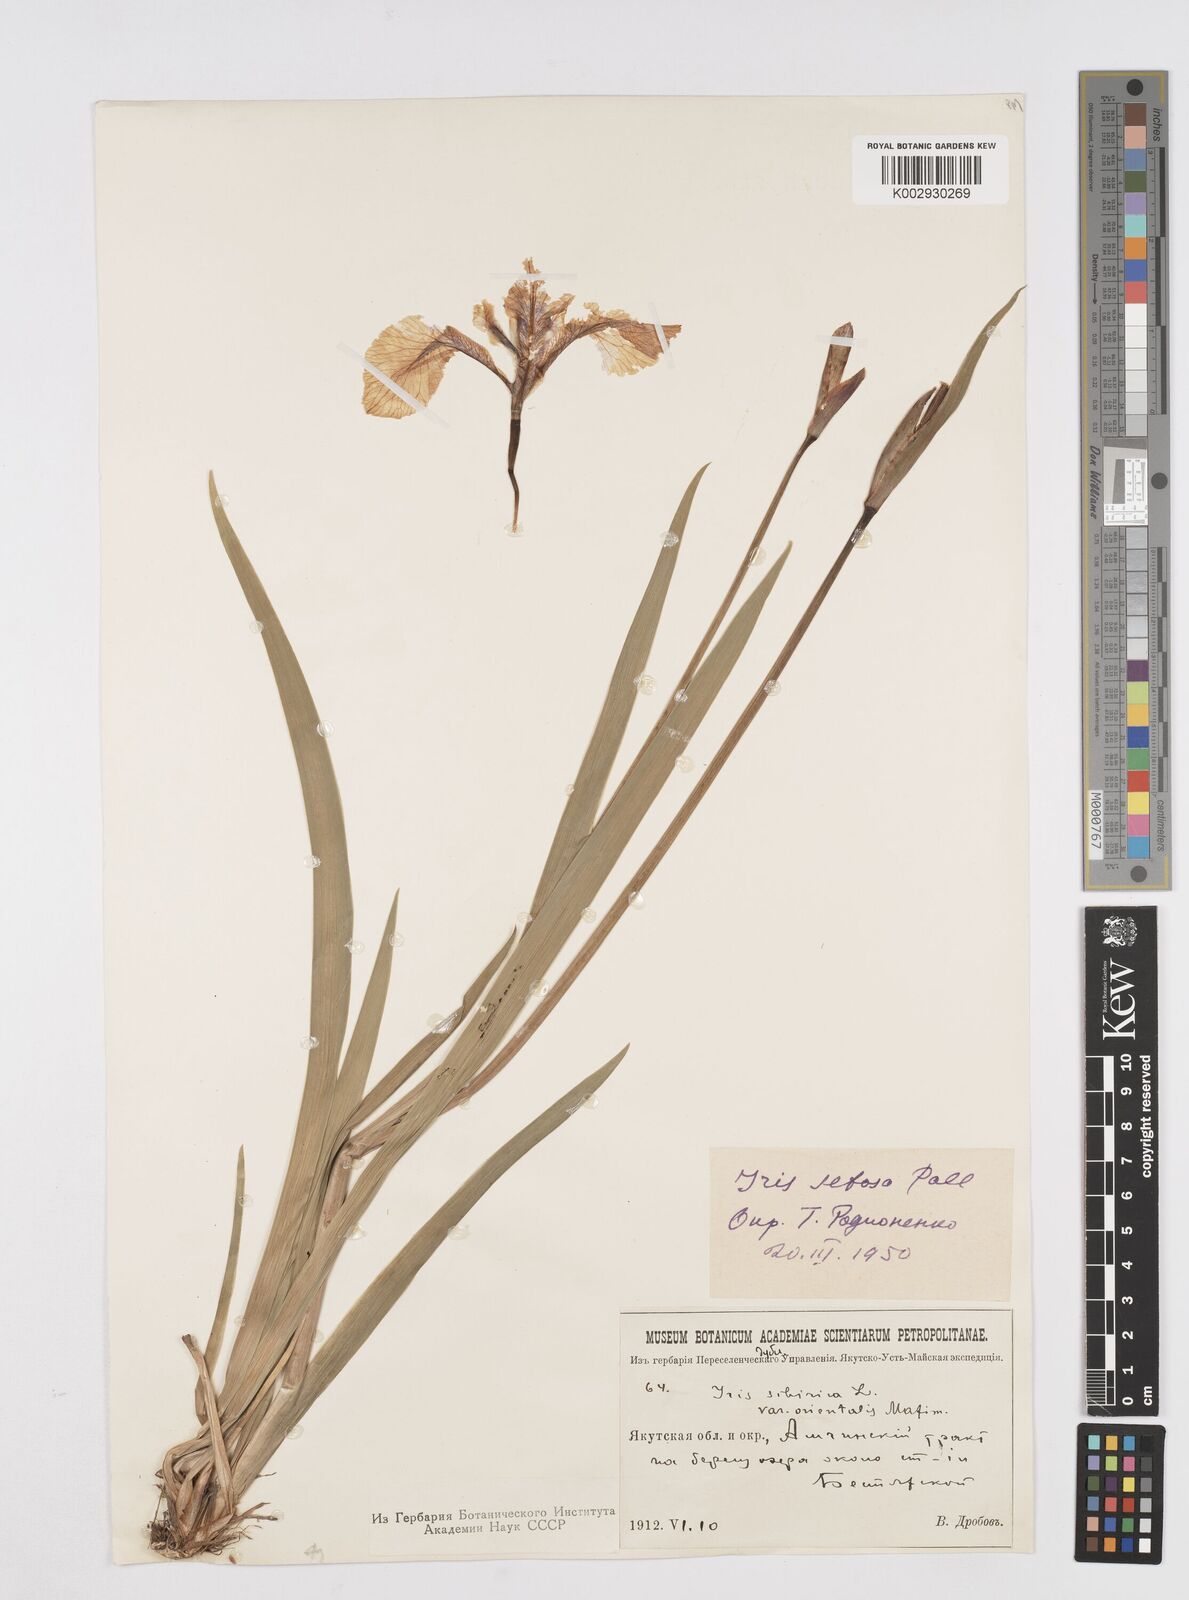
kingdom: Plantae
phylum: Tracheophyta
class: Liliopsida
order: Asparagales
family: Iridaceae
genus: Iris
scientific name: Iris setosa
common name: Arctic blue flag
